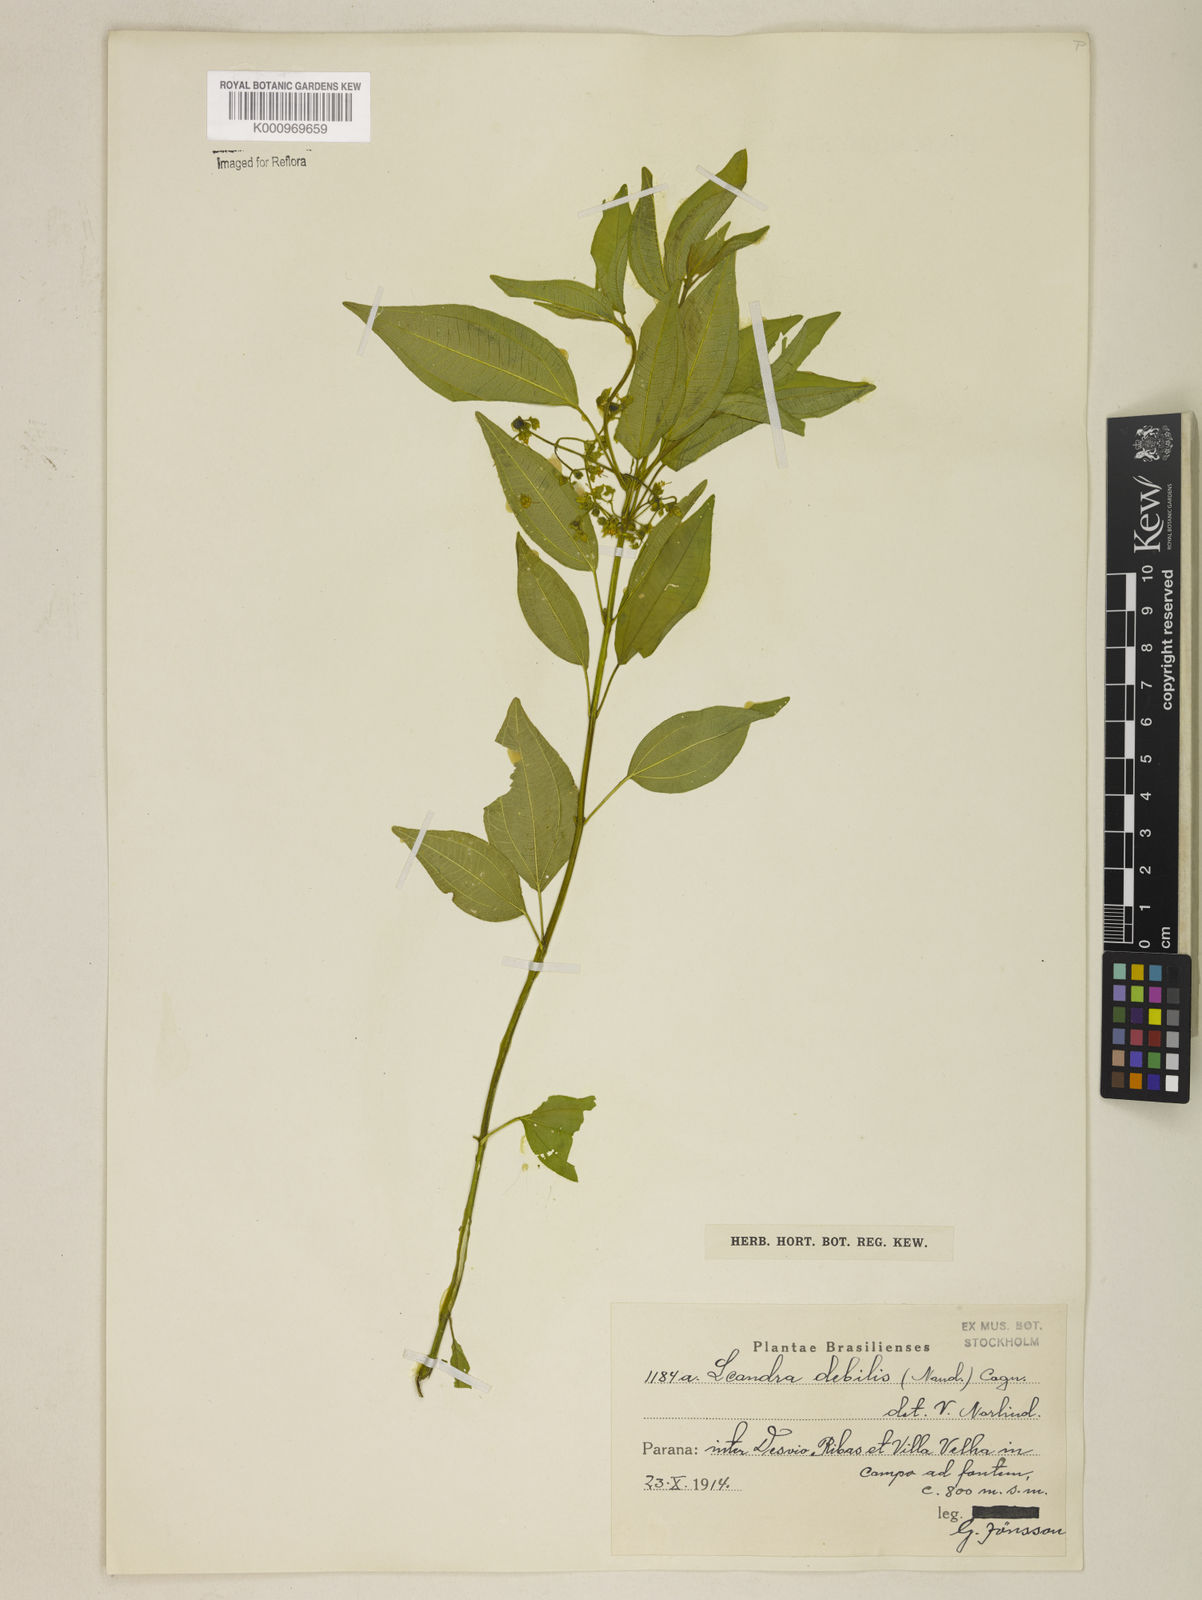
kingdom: Plantae
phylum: Tracheophyta
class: Magnoliopsida
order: Myrtales
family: Melastomataceae
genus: Miconia
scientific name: Miconia leadebilis
